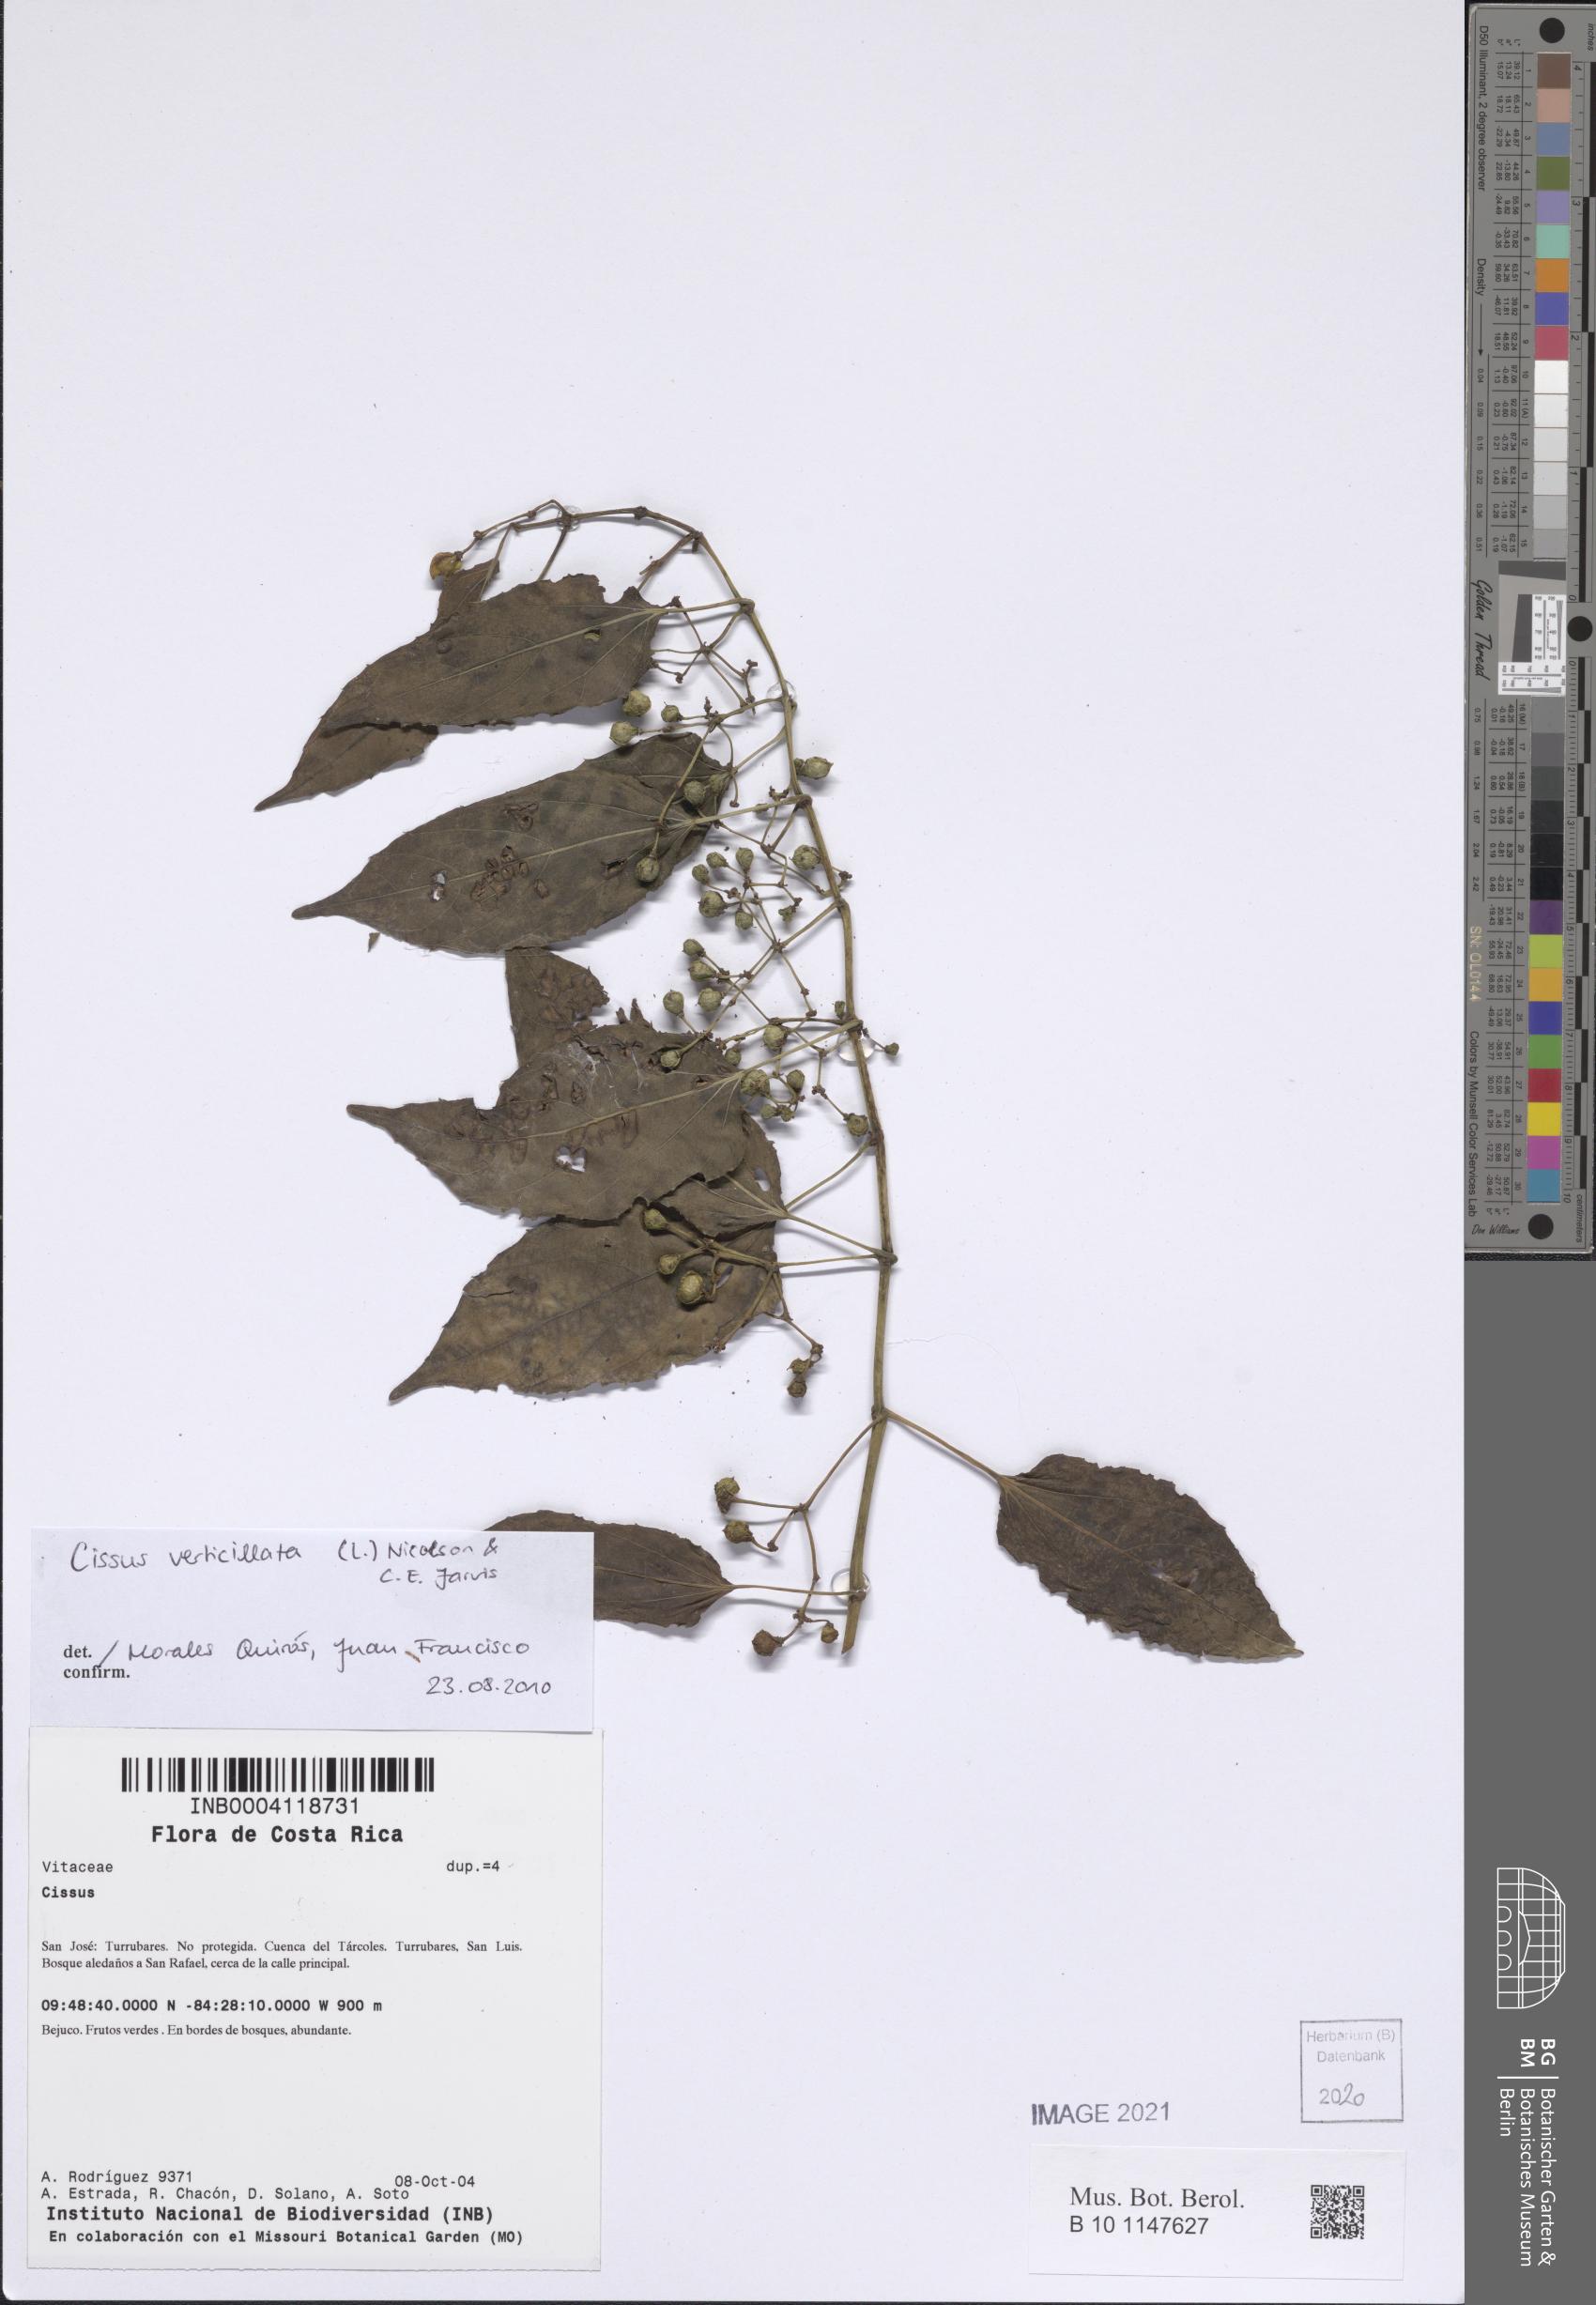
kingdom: Plantae
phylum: Tracheophyta
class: Magnoliopsida
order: Vitales
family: Vitaceae
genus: Cissus
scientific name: Cissus verticillata
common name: Princess vine
